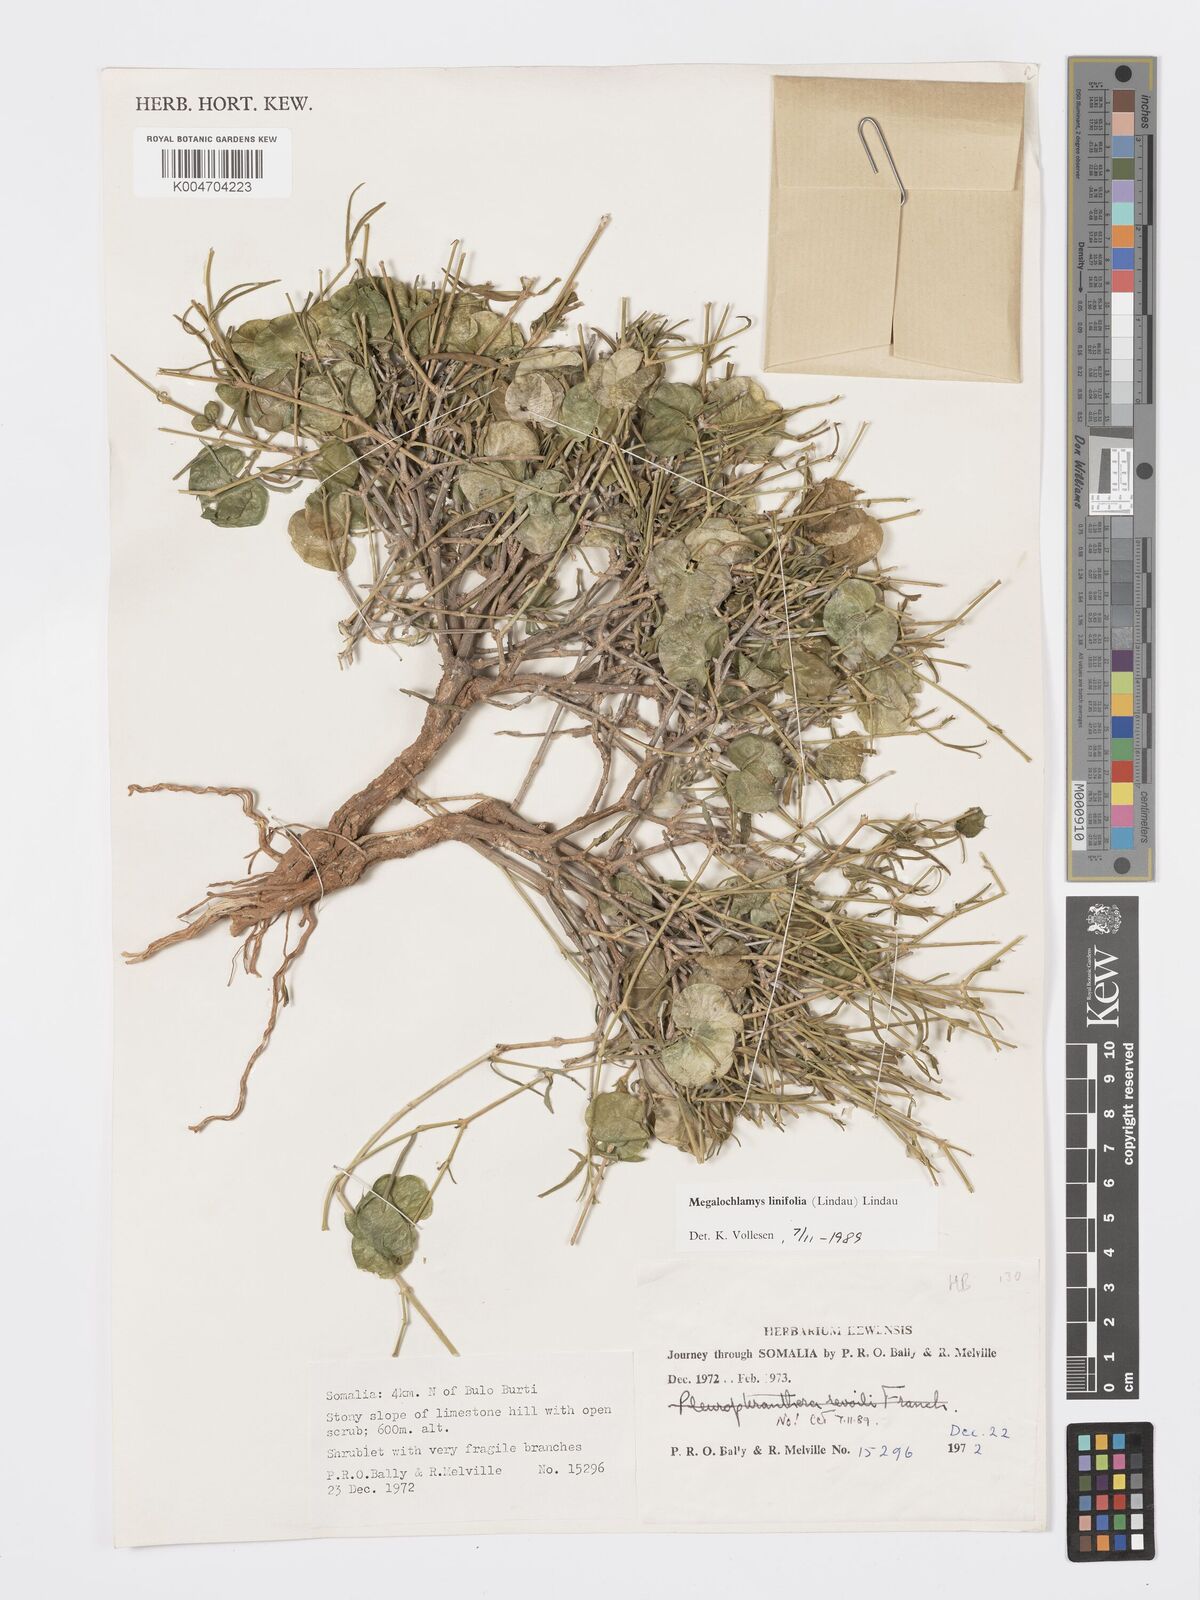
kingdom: Plantae
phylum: Tracheophyta
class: Magnoliopsida
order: Lamiales
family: Acanthaceae
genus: Megalochlamys
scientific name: Megalochlamys linifolia
